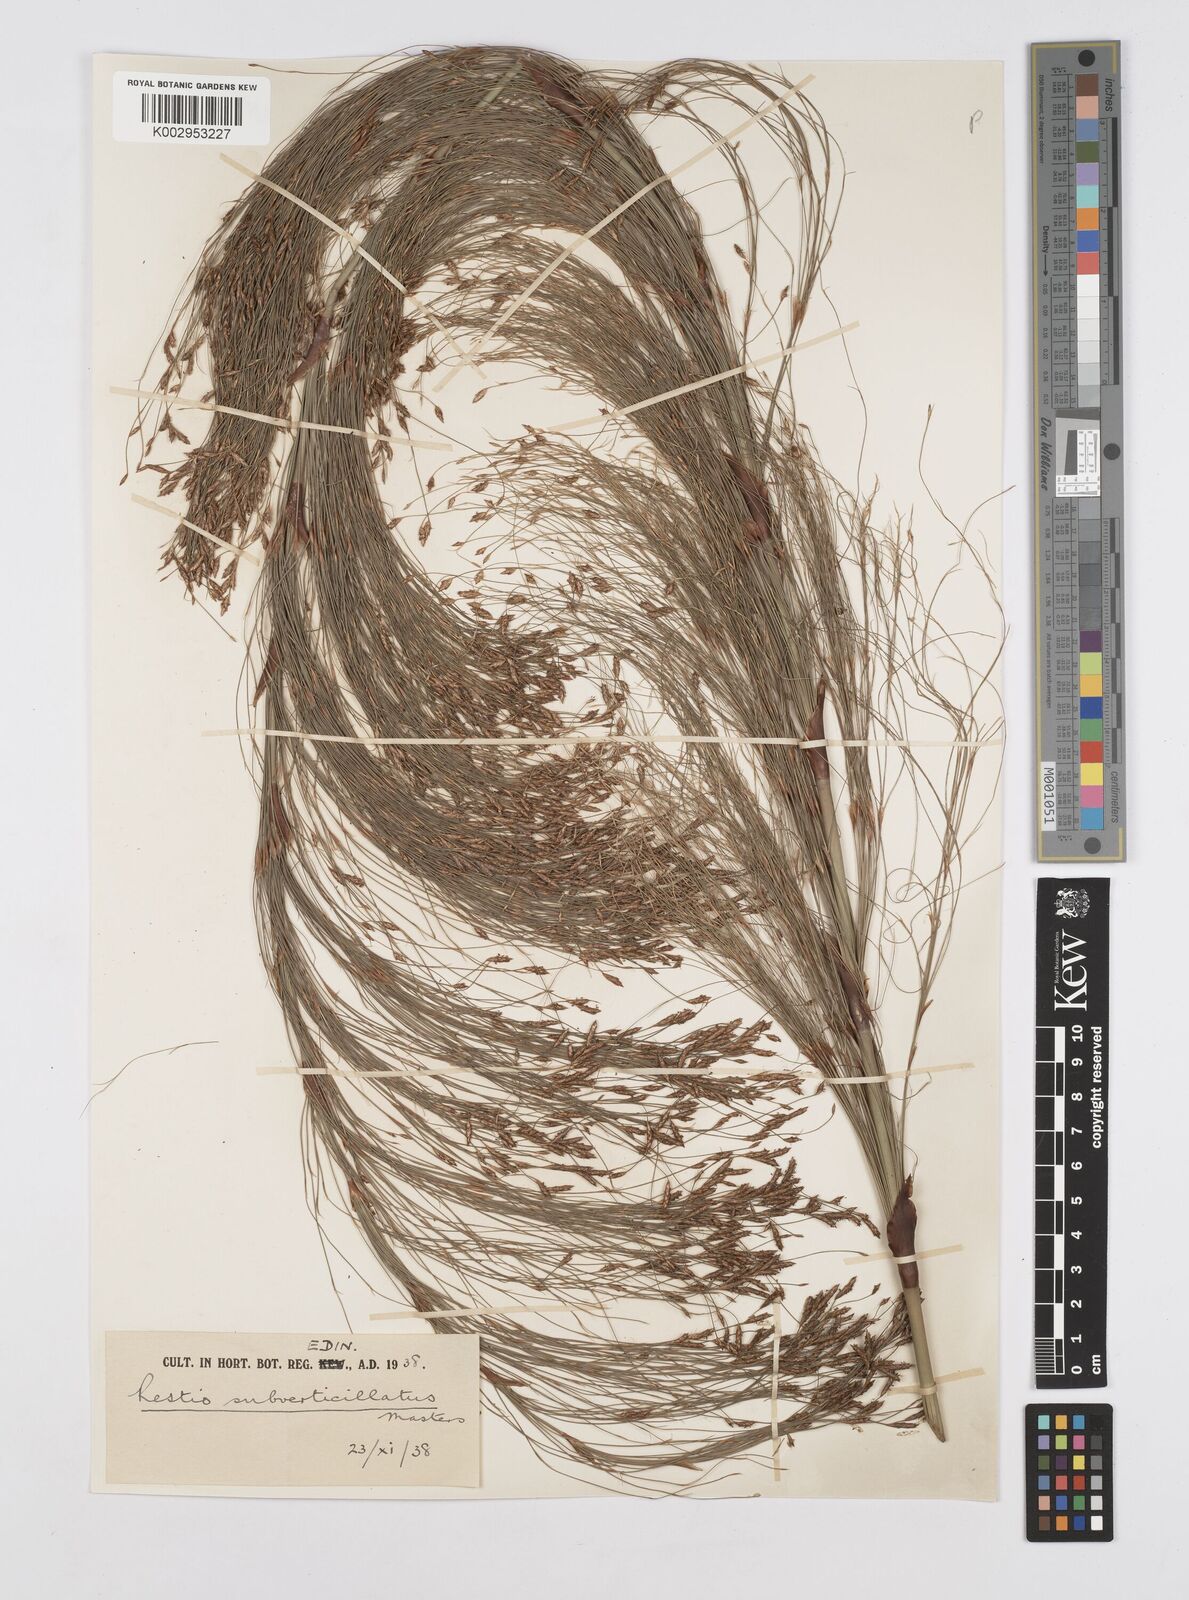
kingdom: Plantae
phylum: Tracheophyta
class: Liliopsida
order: Poales
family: Restionaceae
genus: Restio
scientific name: Restio subverticillatus
